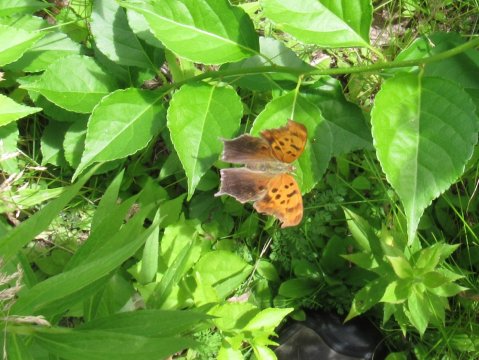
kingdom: Animalia
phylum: Arthropoda
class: Insecta
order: Lepidoptera
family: Nymphalidae
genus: Polygonia
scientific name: Polygonia interrogationis
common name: Question Mark
